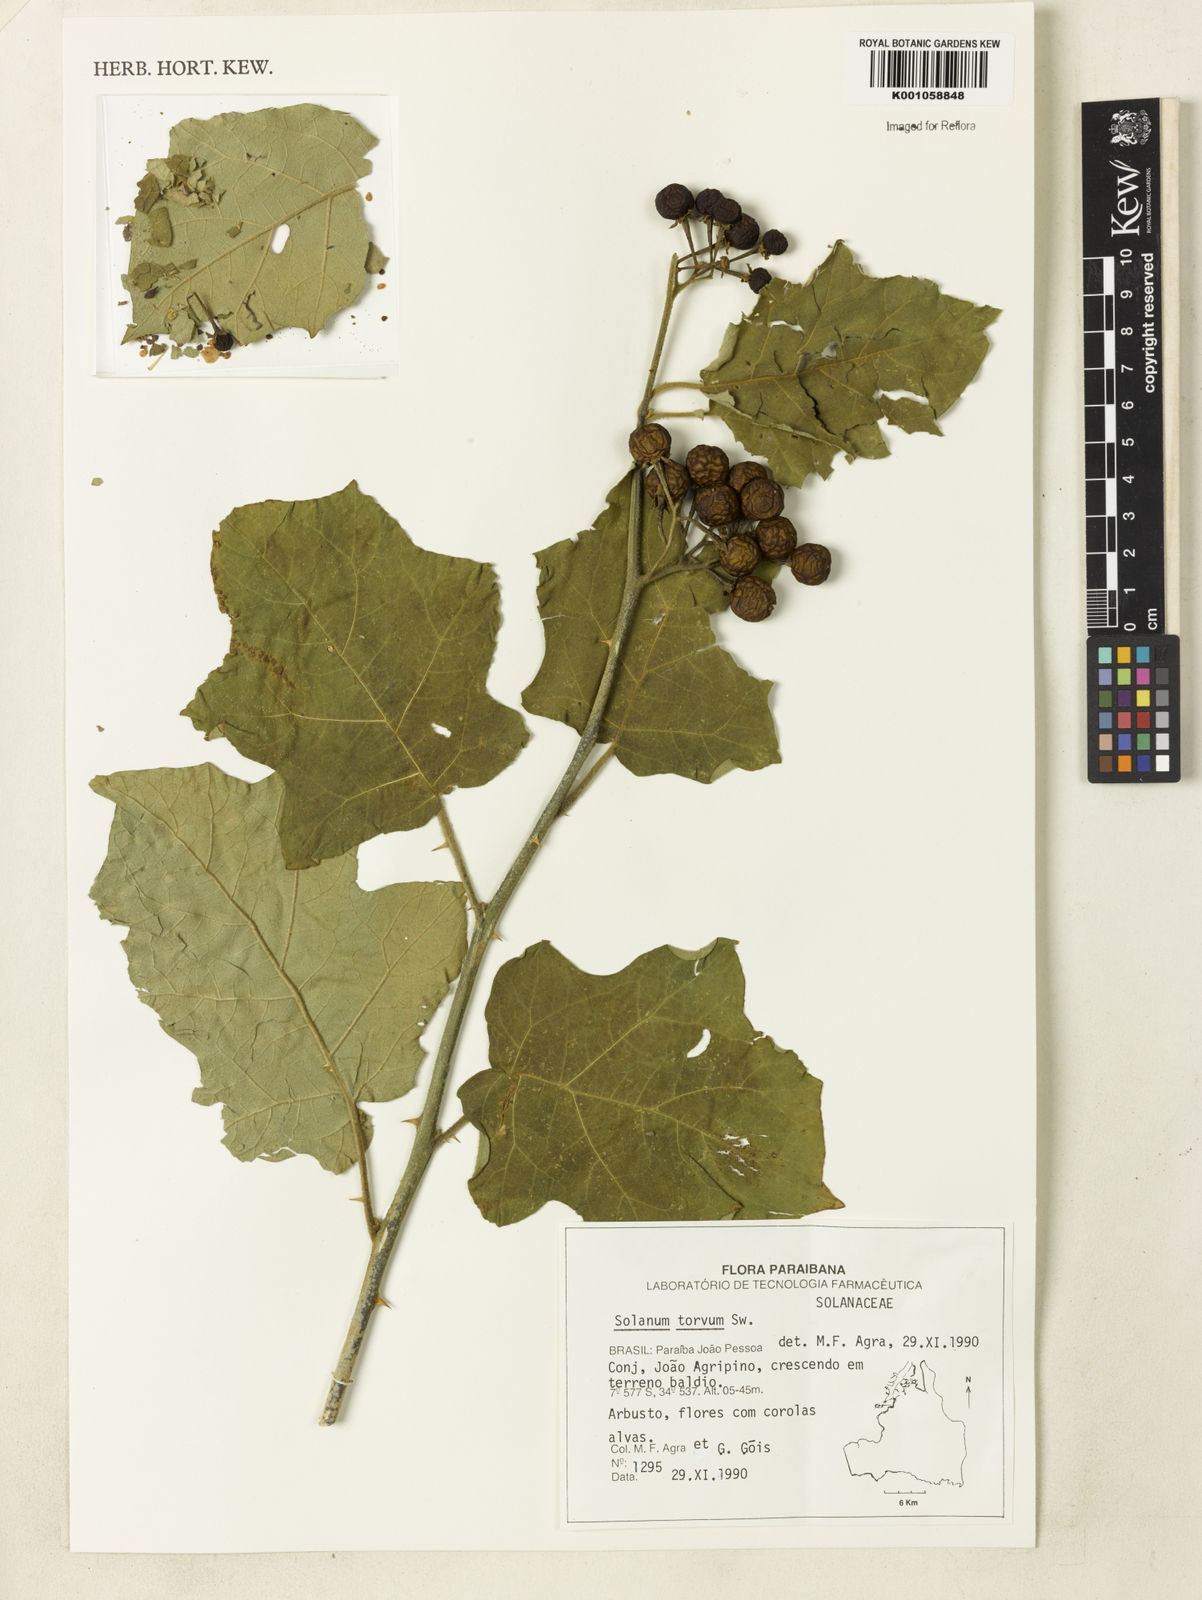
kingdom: Plantae
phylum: Tracheophyta
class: Magnoliopsida
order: Solanales
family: Solanaceae
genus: Solanum
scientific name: Solanum torvum
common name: Turkey berry
